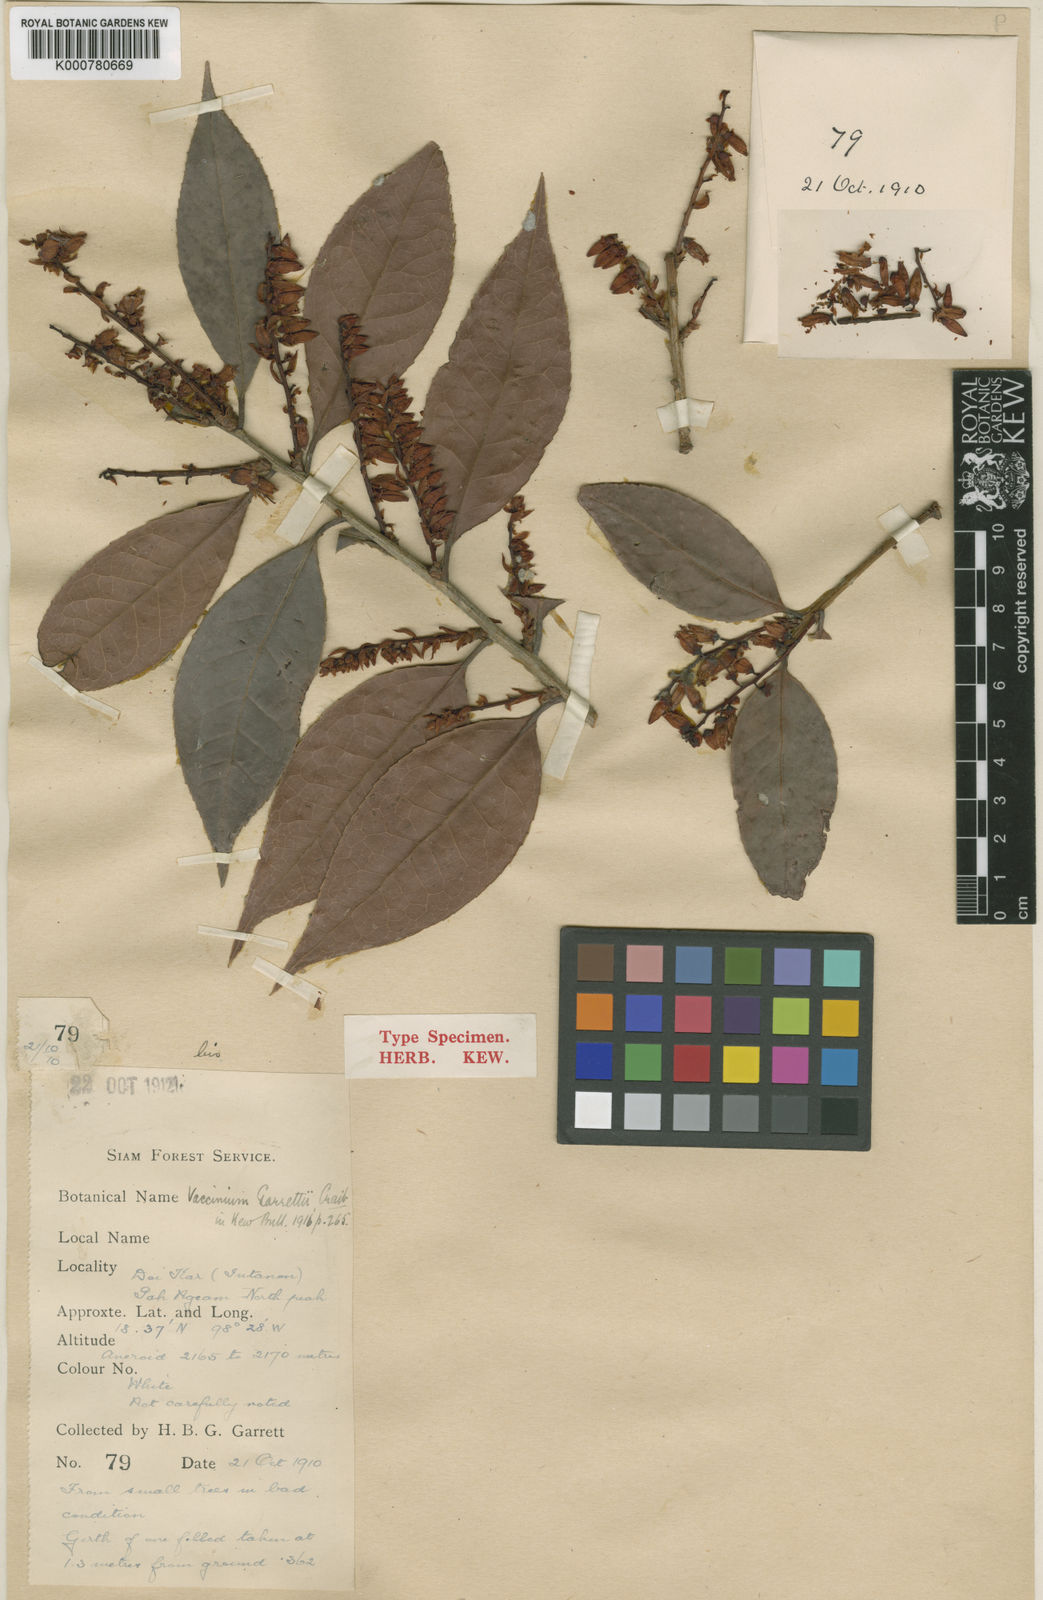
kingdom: Plantae
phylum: Tracheophyta
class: Magnoliopsida
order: Ericales
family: Ericaceae
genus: Vaccinium
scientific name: Vaccinium exaristatum
